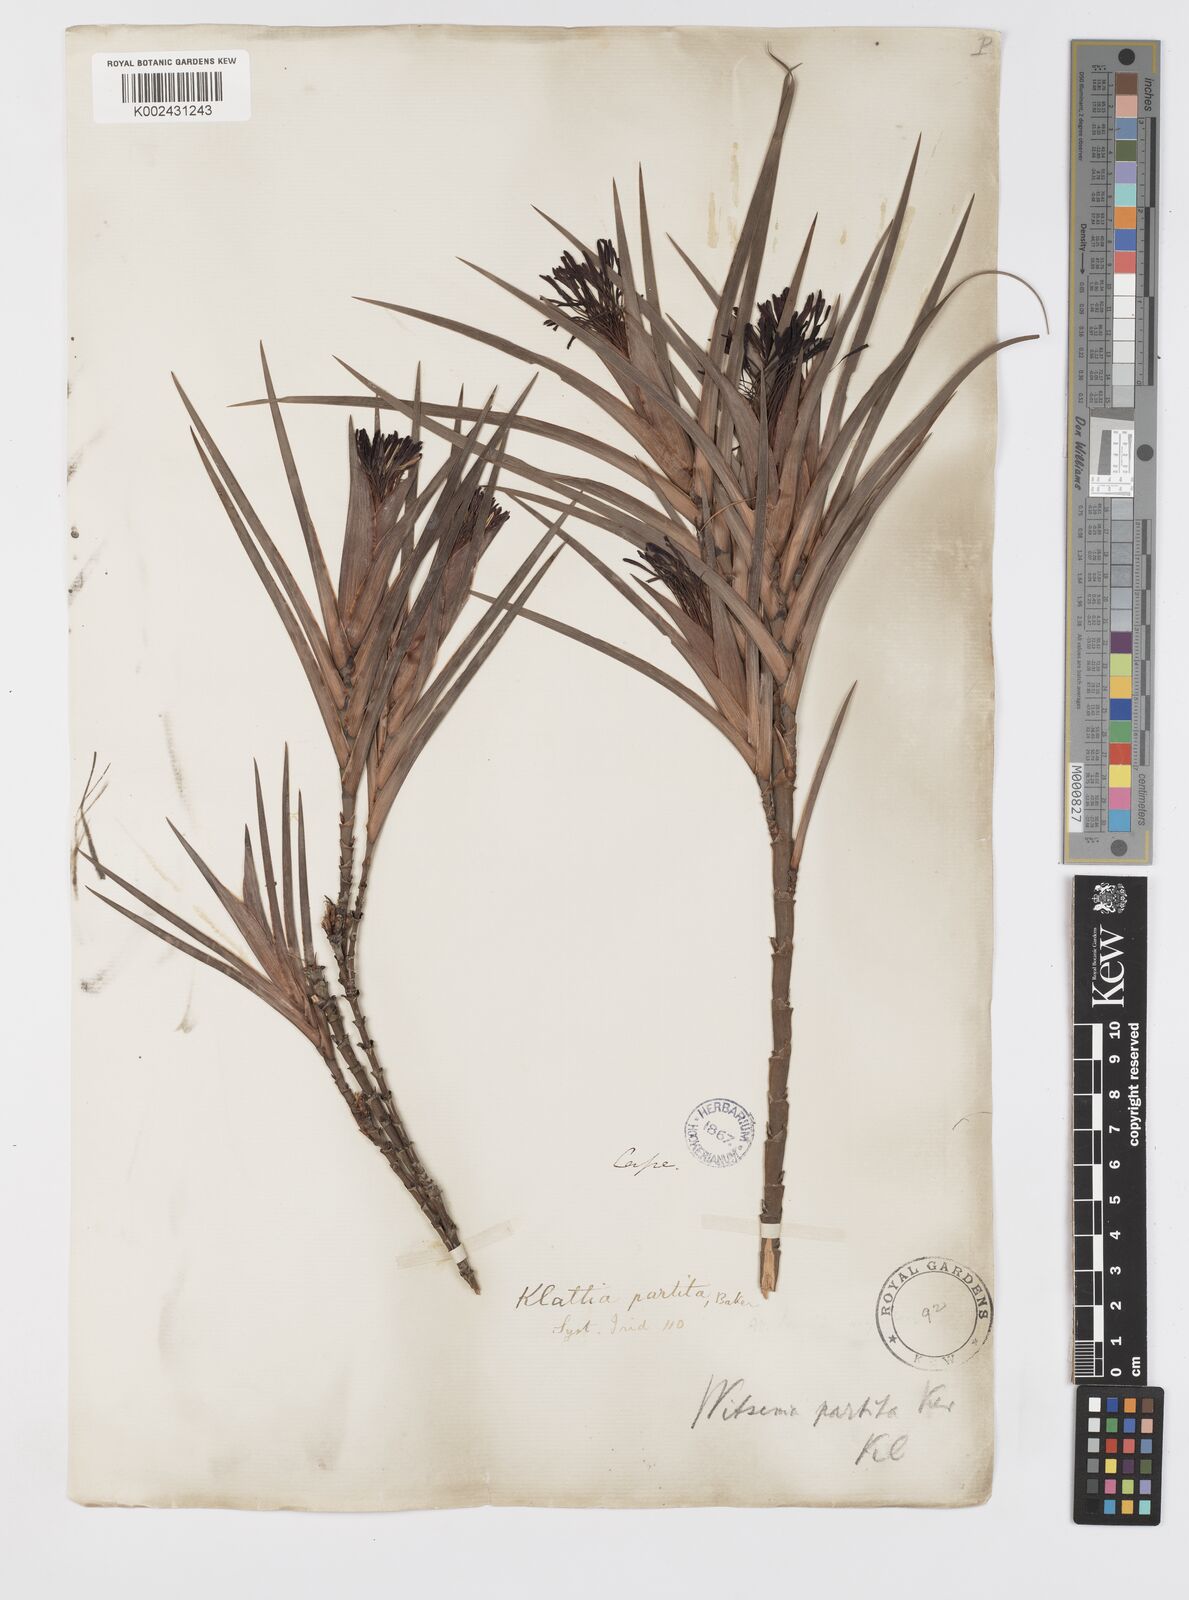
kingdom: Plantae
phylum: Tracheophyta
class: Liliopsida
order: Asparagales
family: Iridaceae
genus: Klattia
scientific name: Klattia partita
